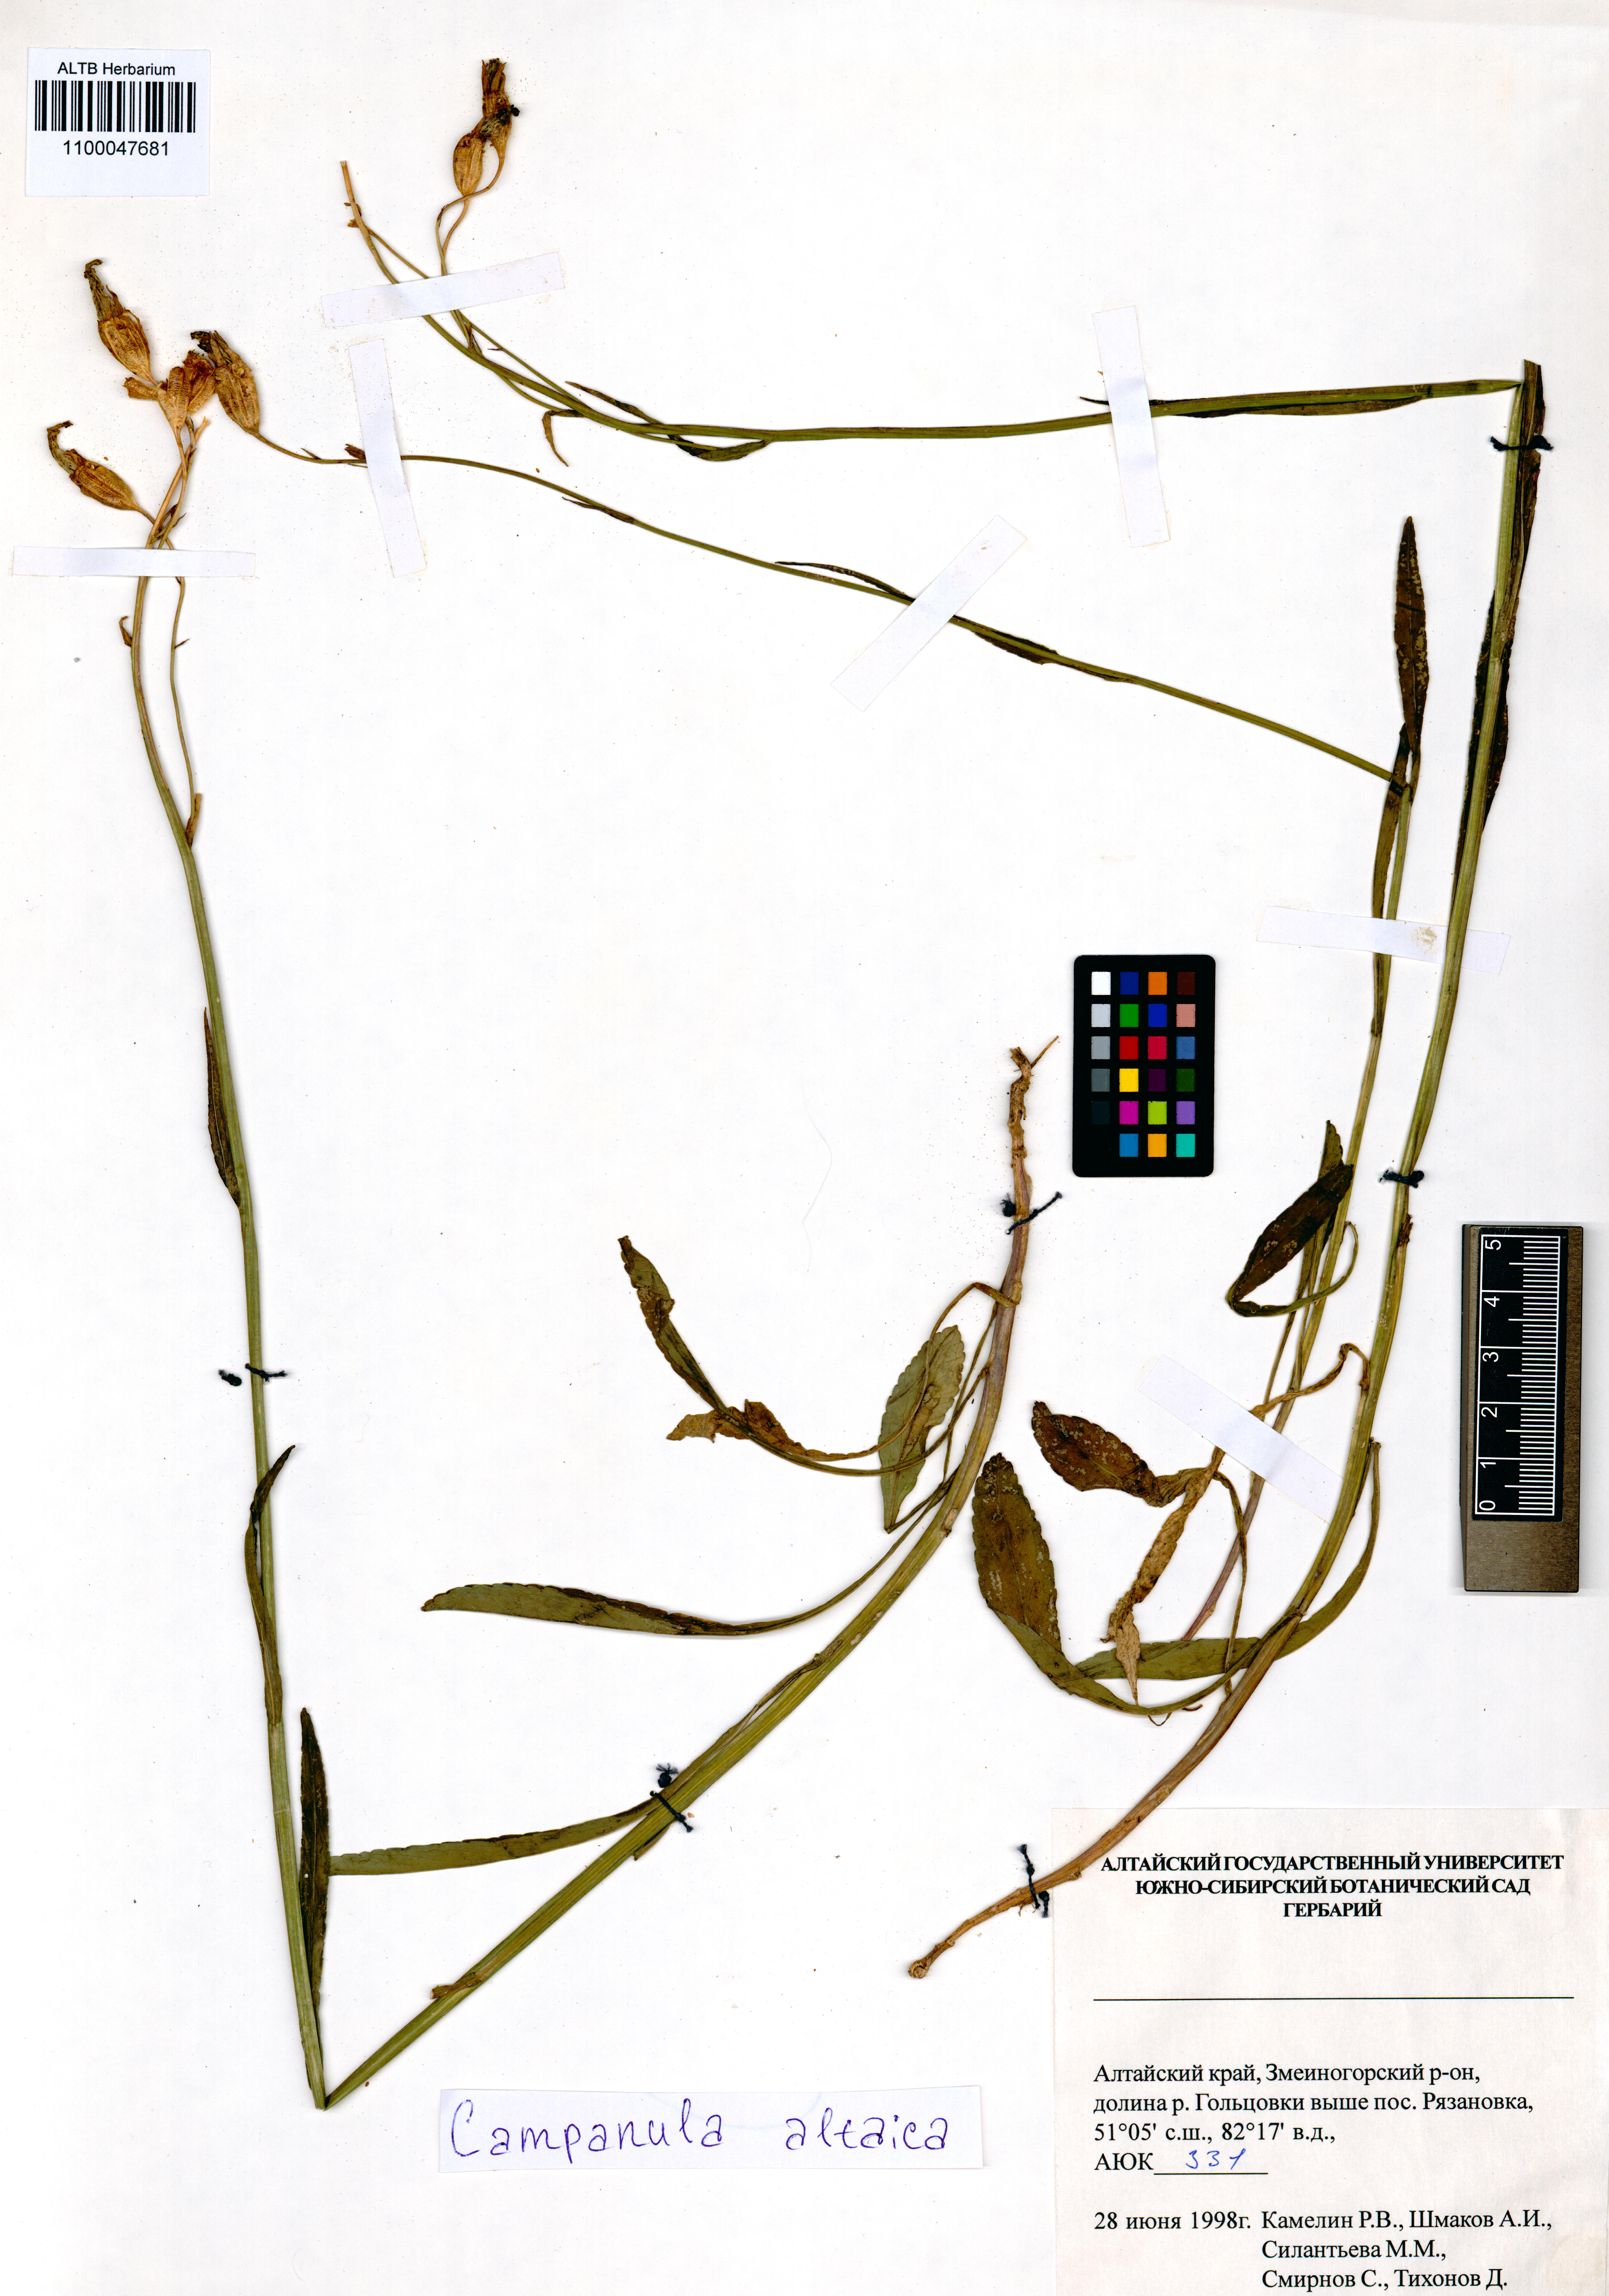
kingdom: Plantae
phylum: Tracheophyta
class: Magnoliopsida
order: Asterales
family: Campanulaceae
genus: Campanula
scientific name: Campanula stevenii
